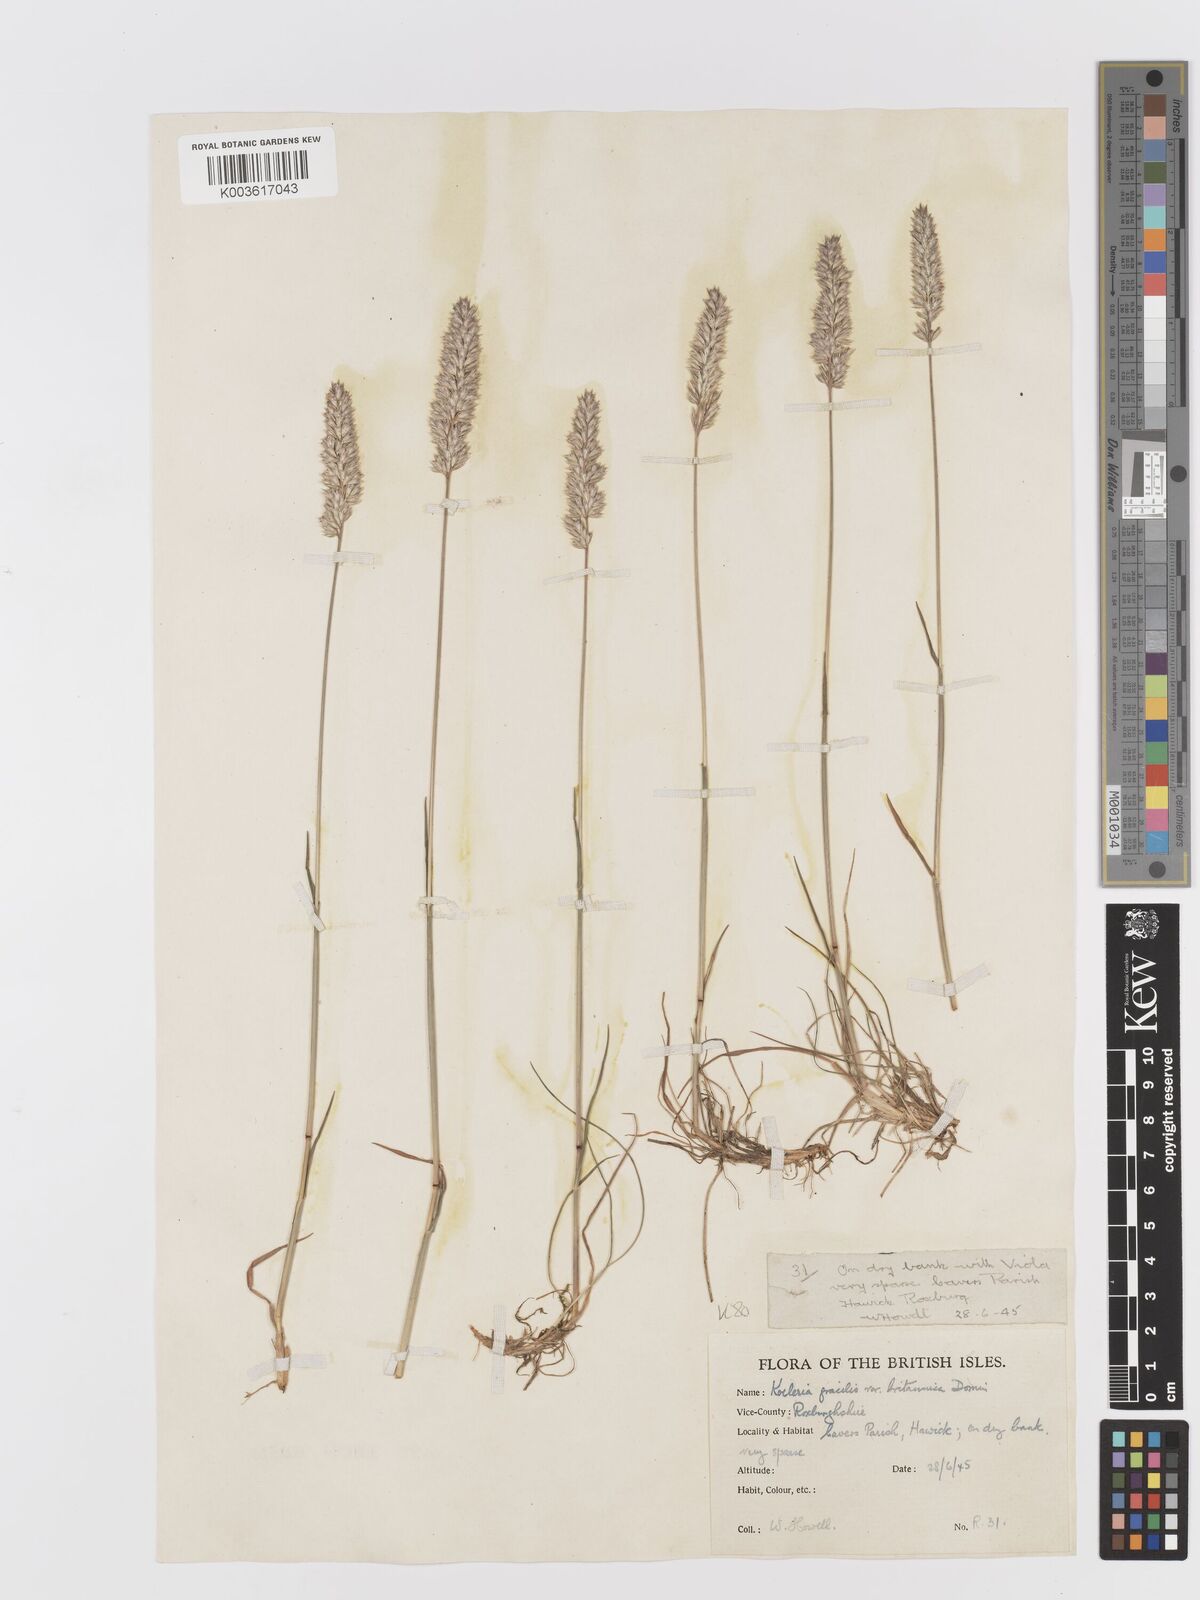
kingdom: Plantae
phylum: Tracheophyta
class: Liliopsida
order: Poales
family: Poaceae
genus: Koeleria
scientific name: Koeleria macrantha
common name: Crested hair-grass
